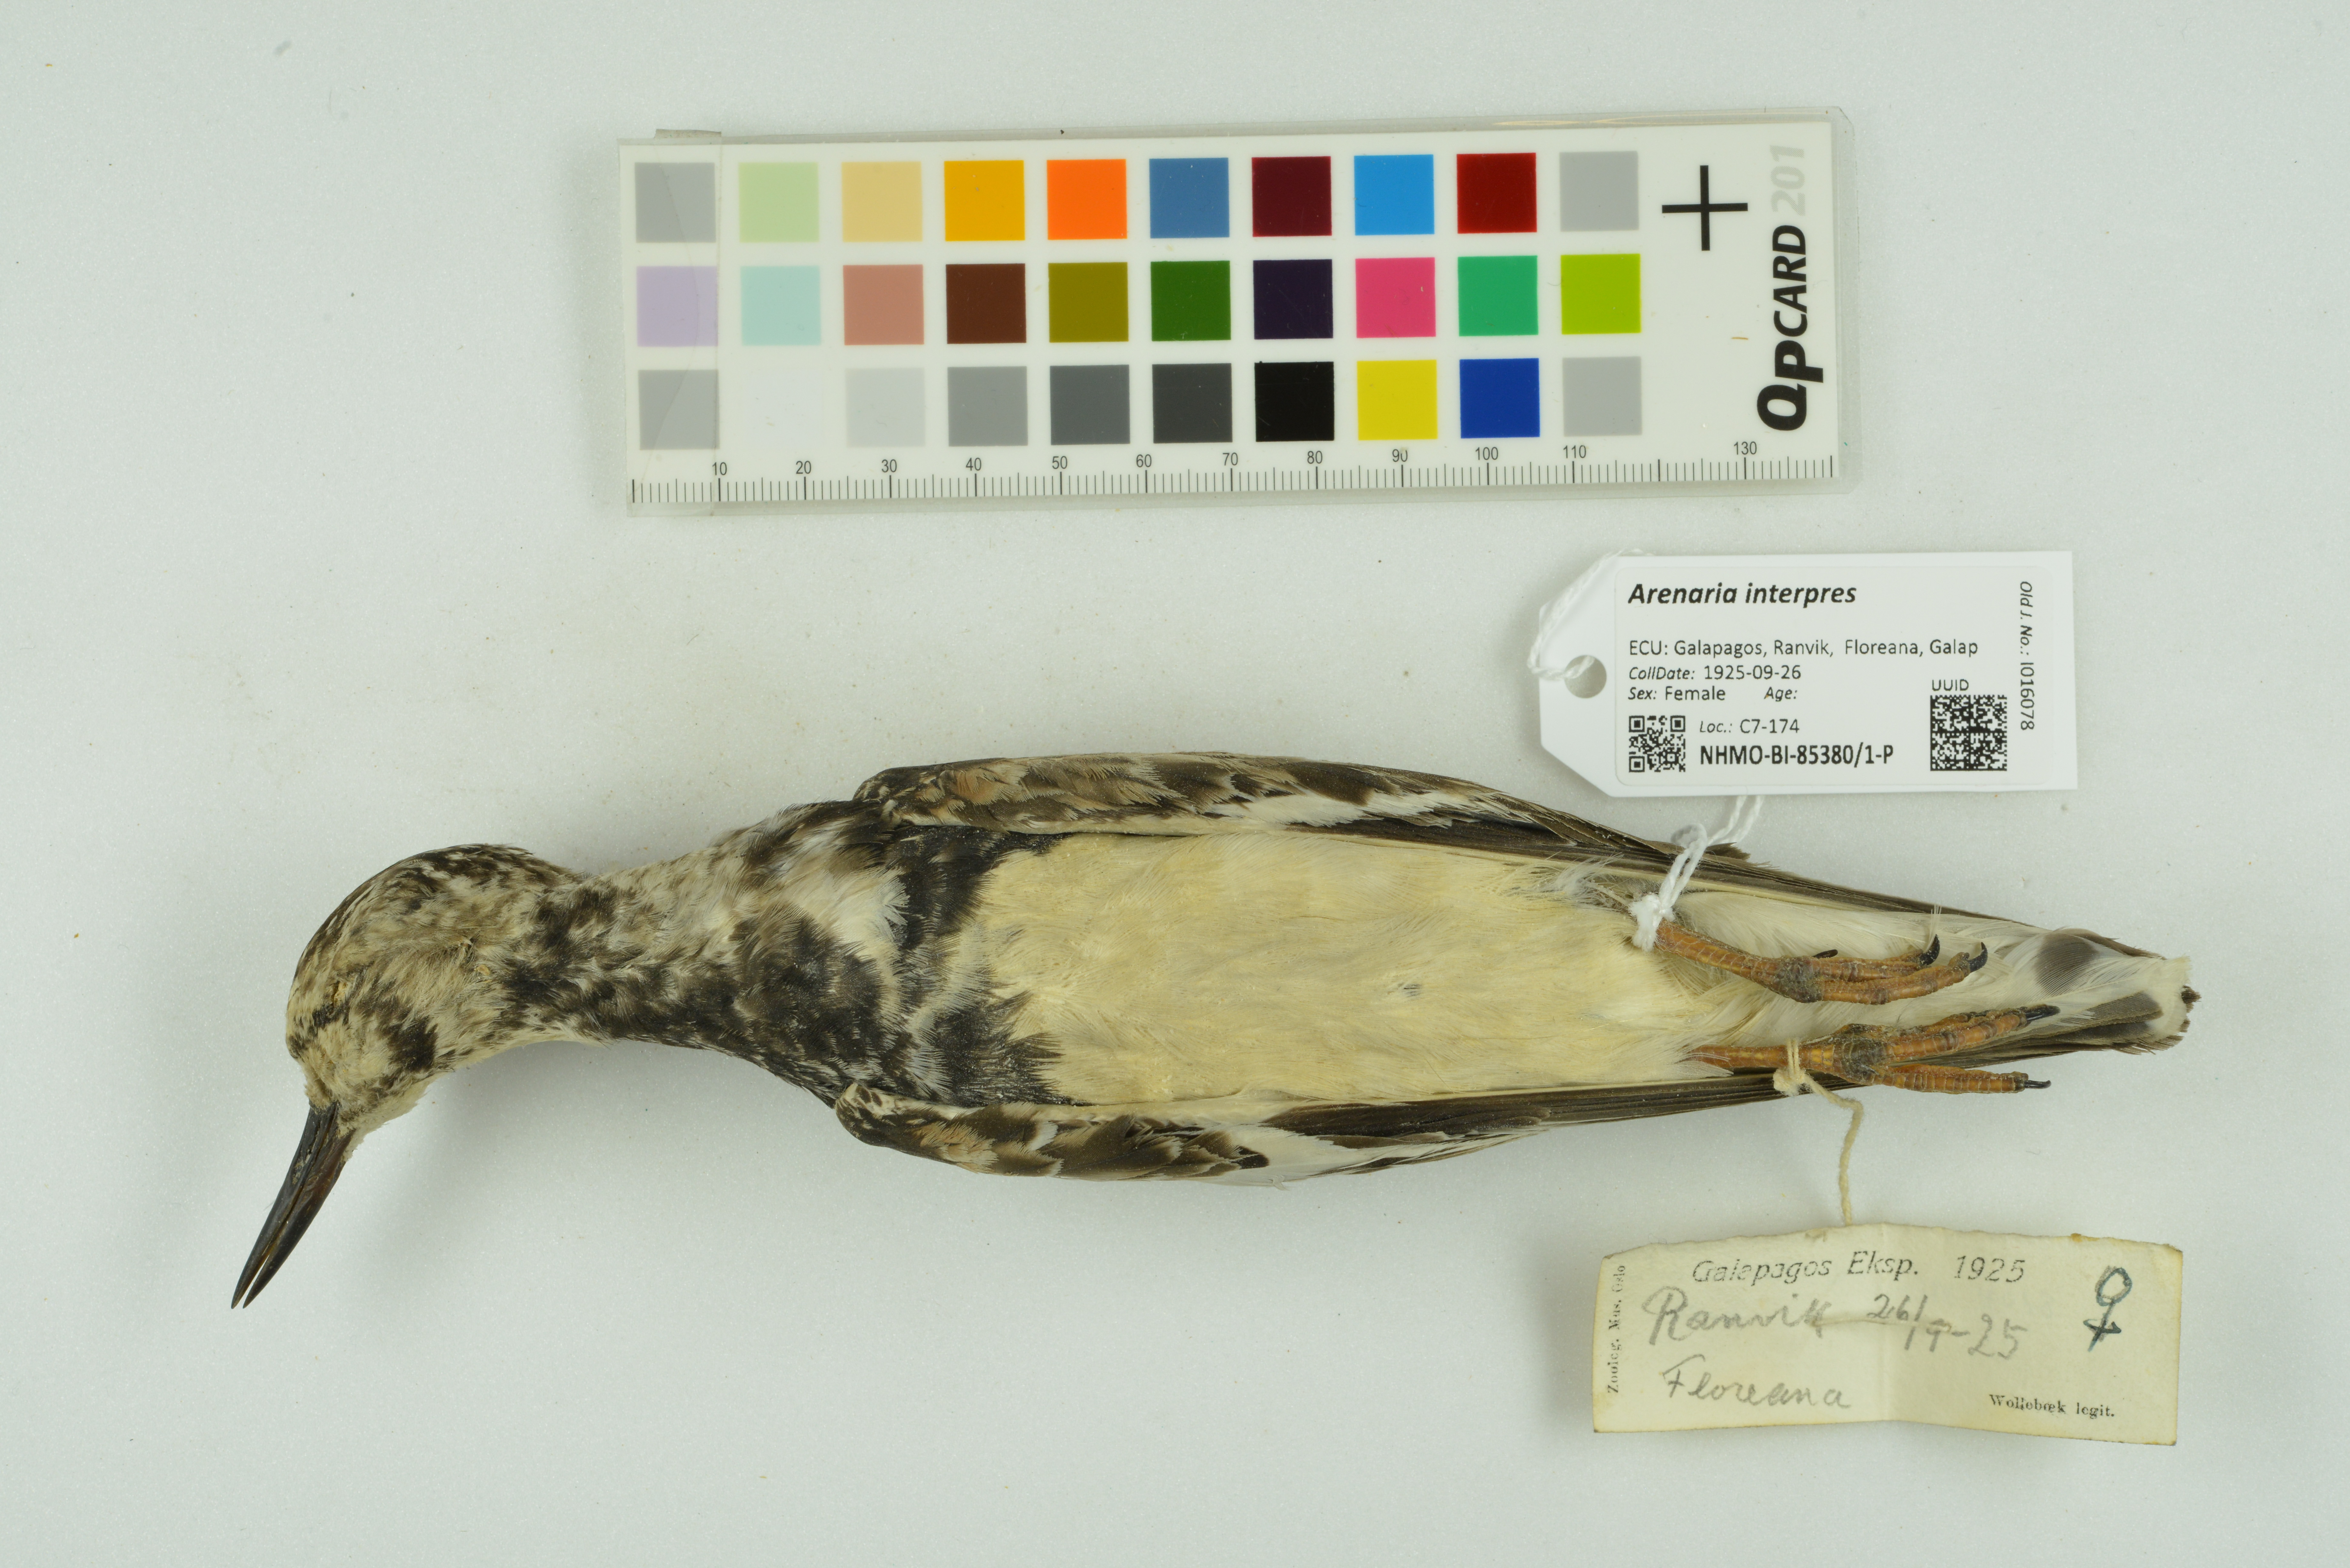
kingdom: Animalia
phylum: Chordata
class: Aves
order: Charadriiformes
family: Scolopacidae
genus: Arenaria
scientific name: Arenaria interpres
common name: Ruddy turnstone
